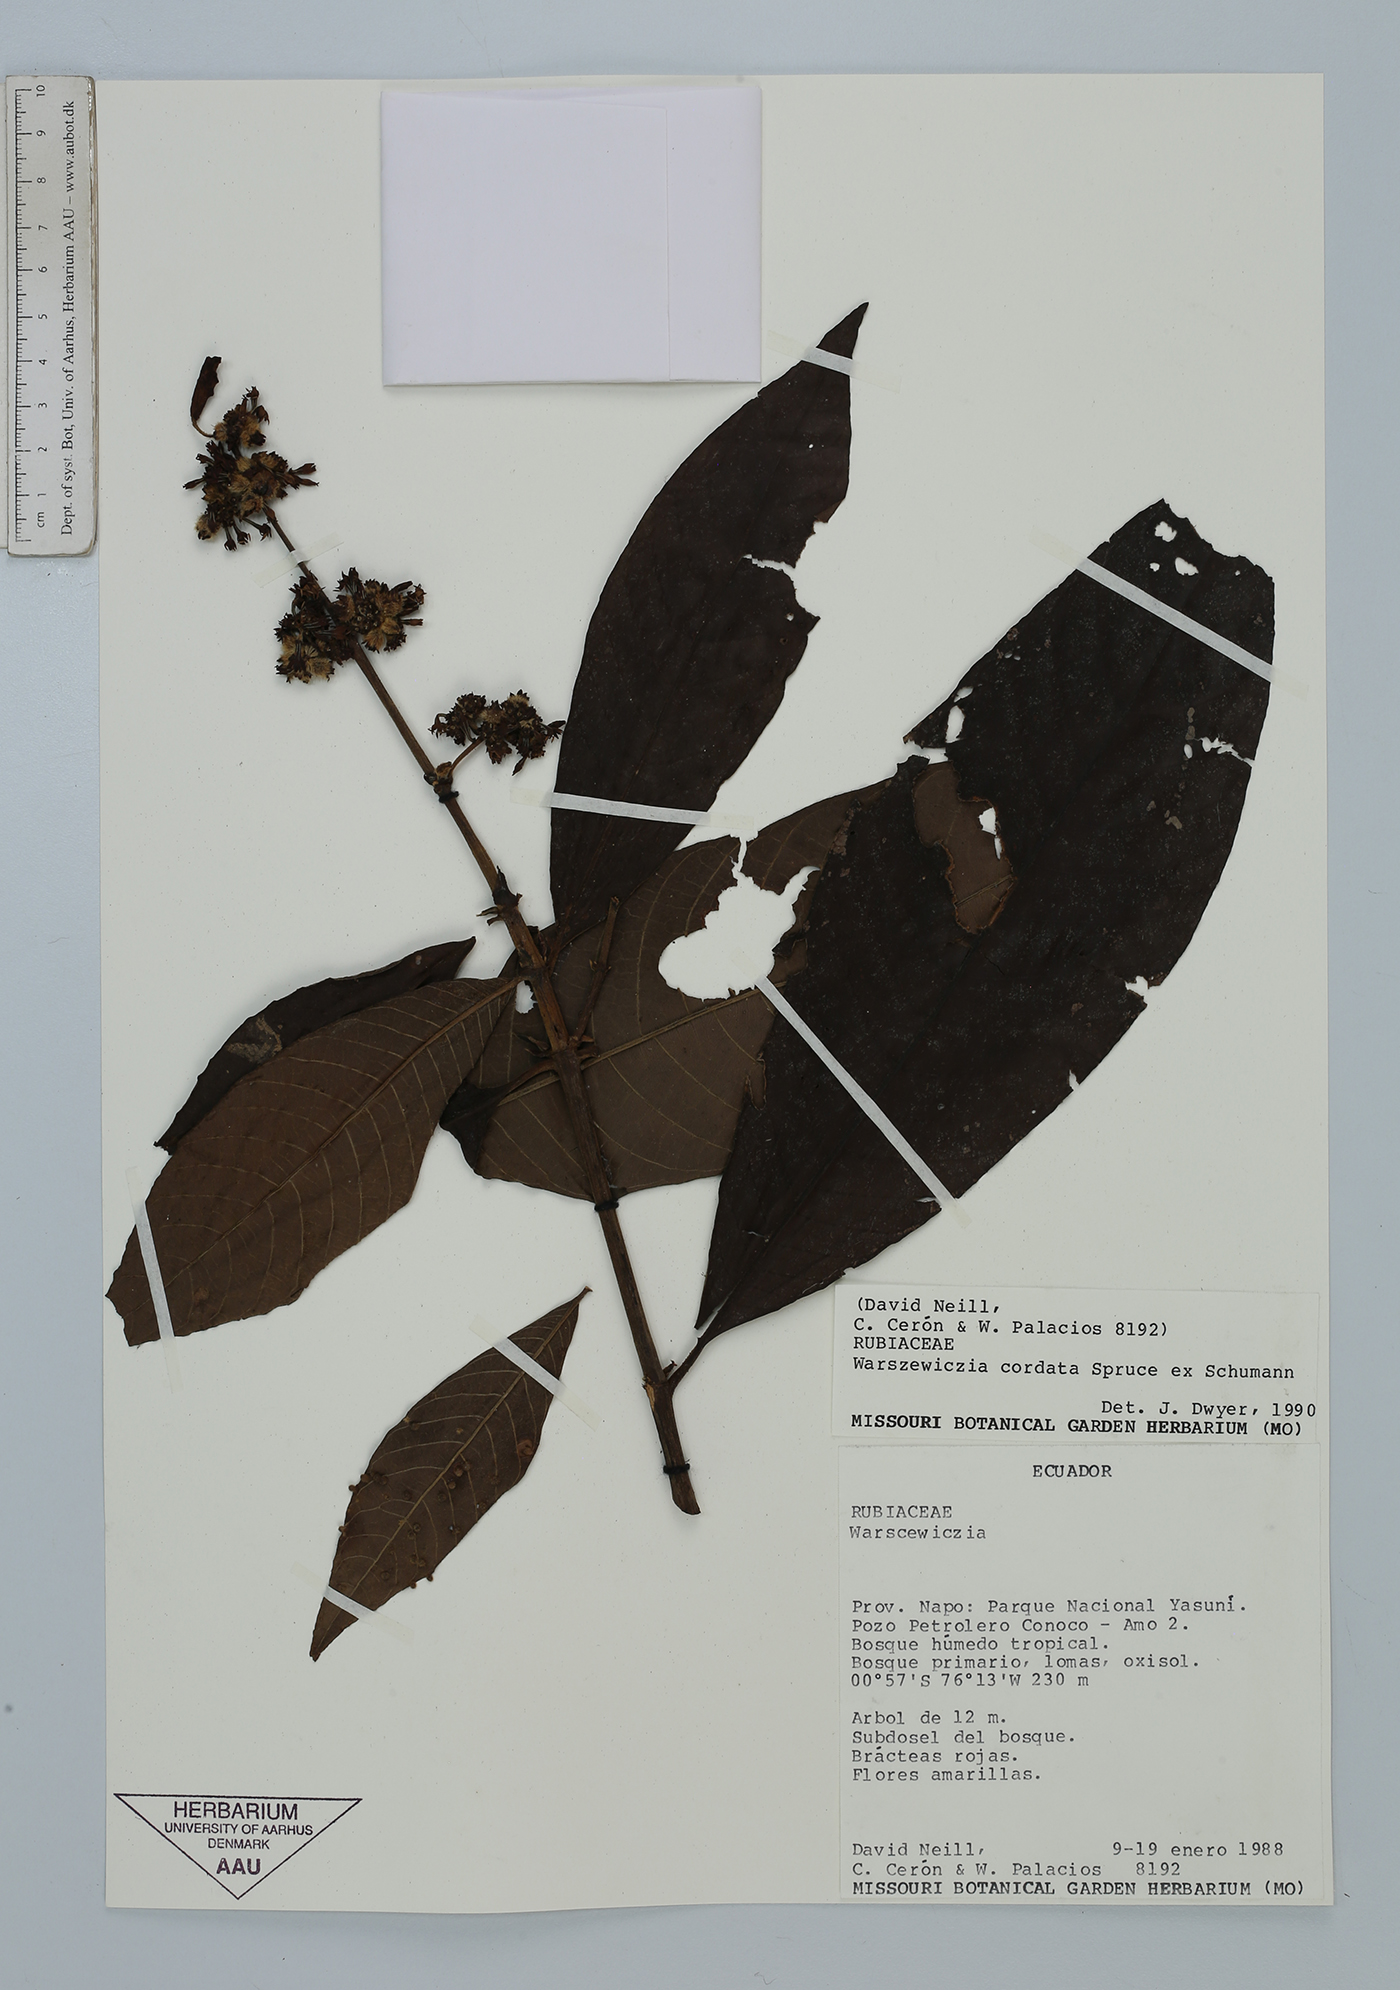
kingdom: Plantae
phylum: Tracheophyta
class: Magnoliopsida
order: Gentianales
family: Rubiaceae
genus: Warszewiczia
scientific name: Warszewiczia cordata
